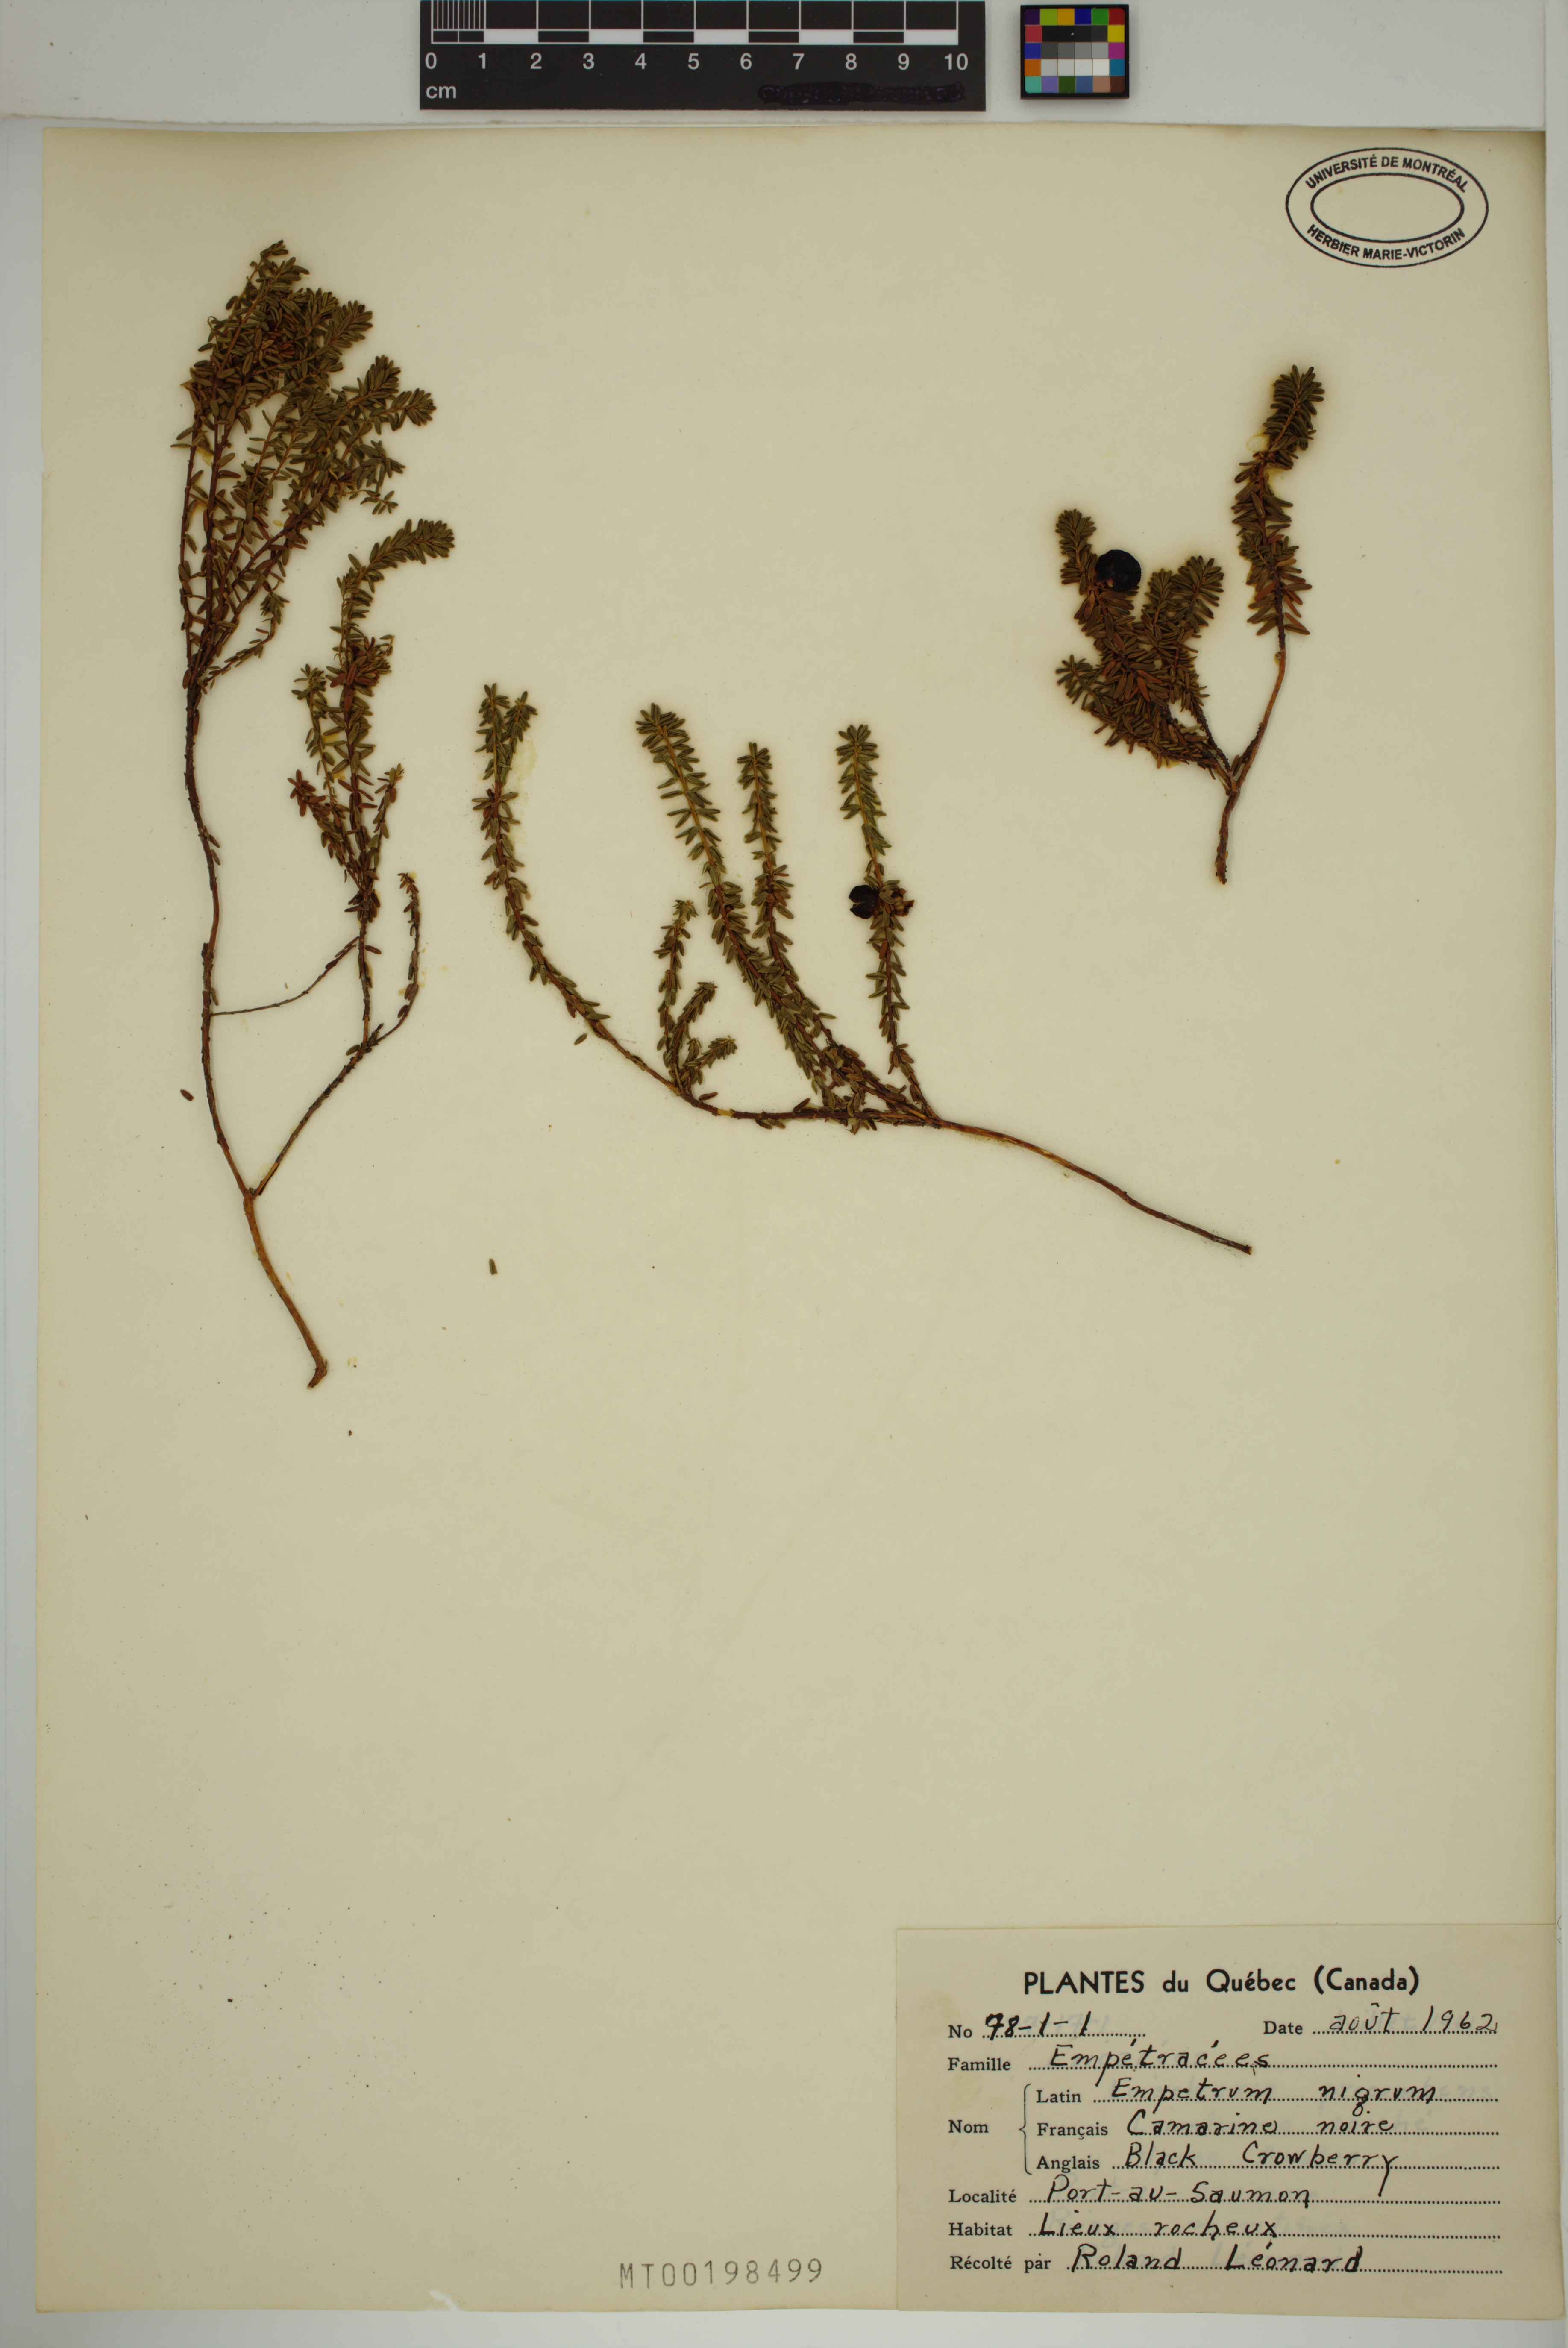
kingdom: Plantae
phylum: Tracheophyta
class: Magnoliopsida
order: Ericales
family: Ericaceae
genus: Empetrum
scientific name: Empetrum nigrum
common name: Black crowberry
